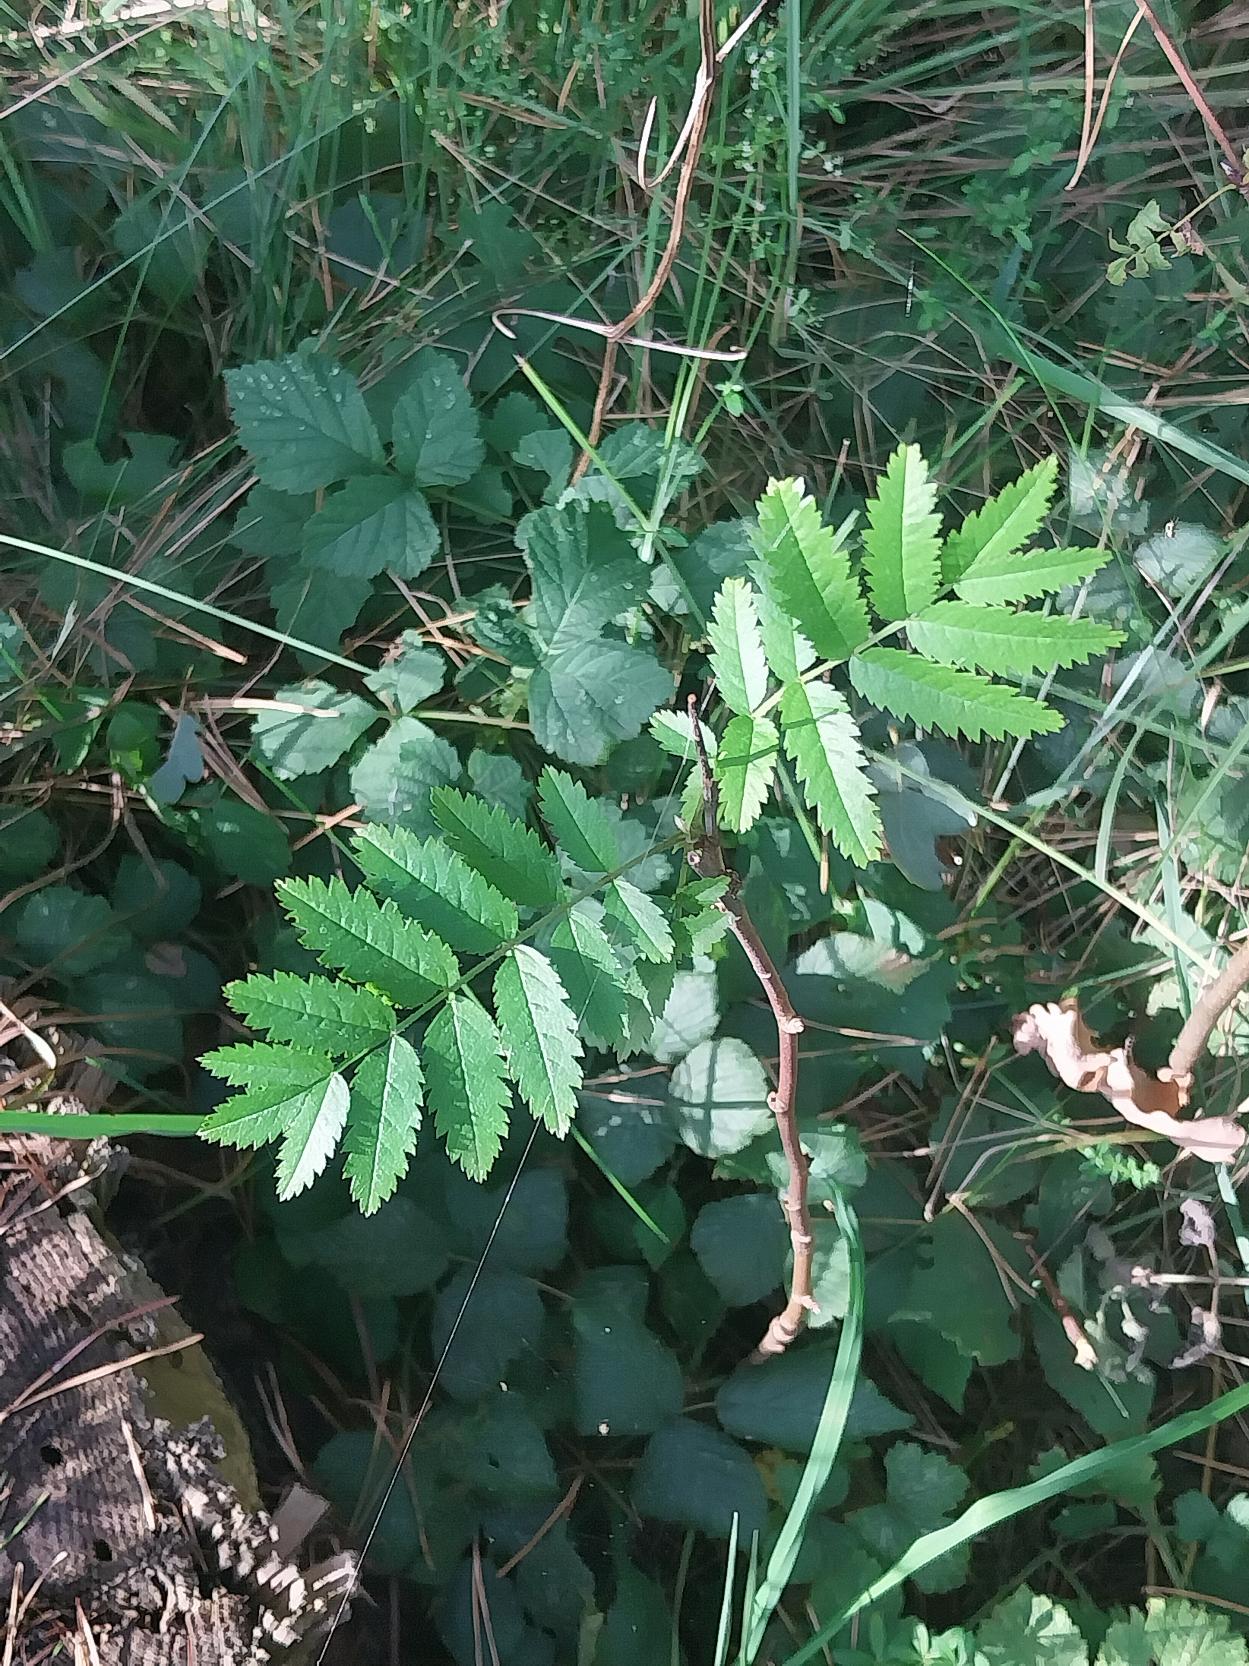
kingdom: Plantae
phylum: Tracheophyta
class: Magnoliopsida
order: Rosales
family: Rosaceae
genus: Sorbus
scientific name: Sorbus aucuparia
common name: Almindelig røn
